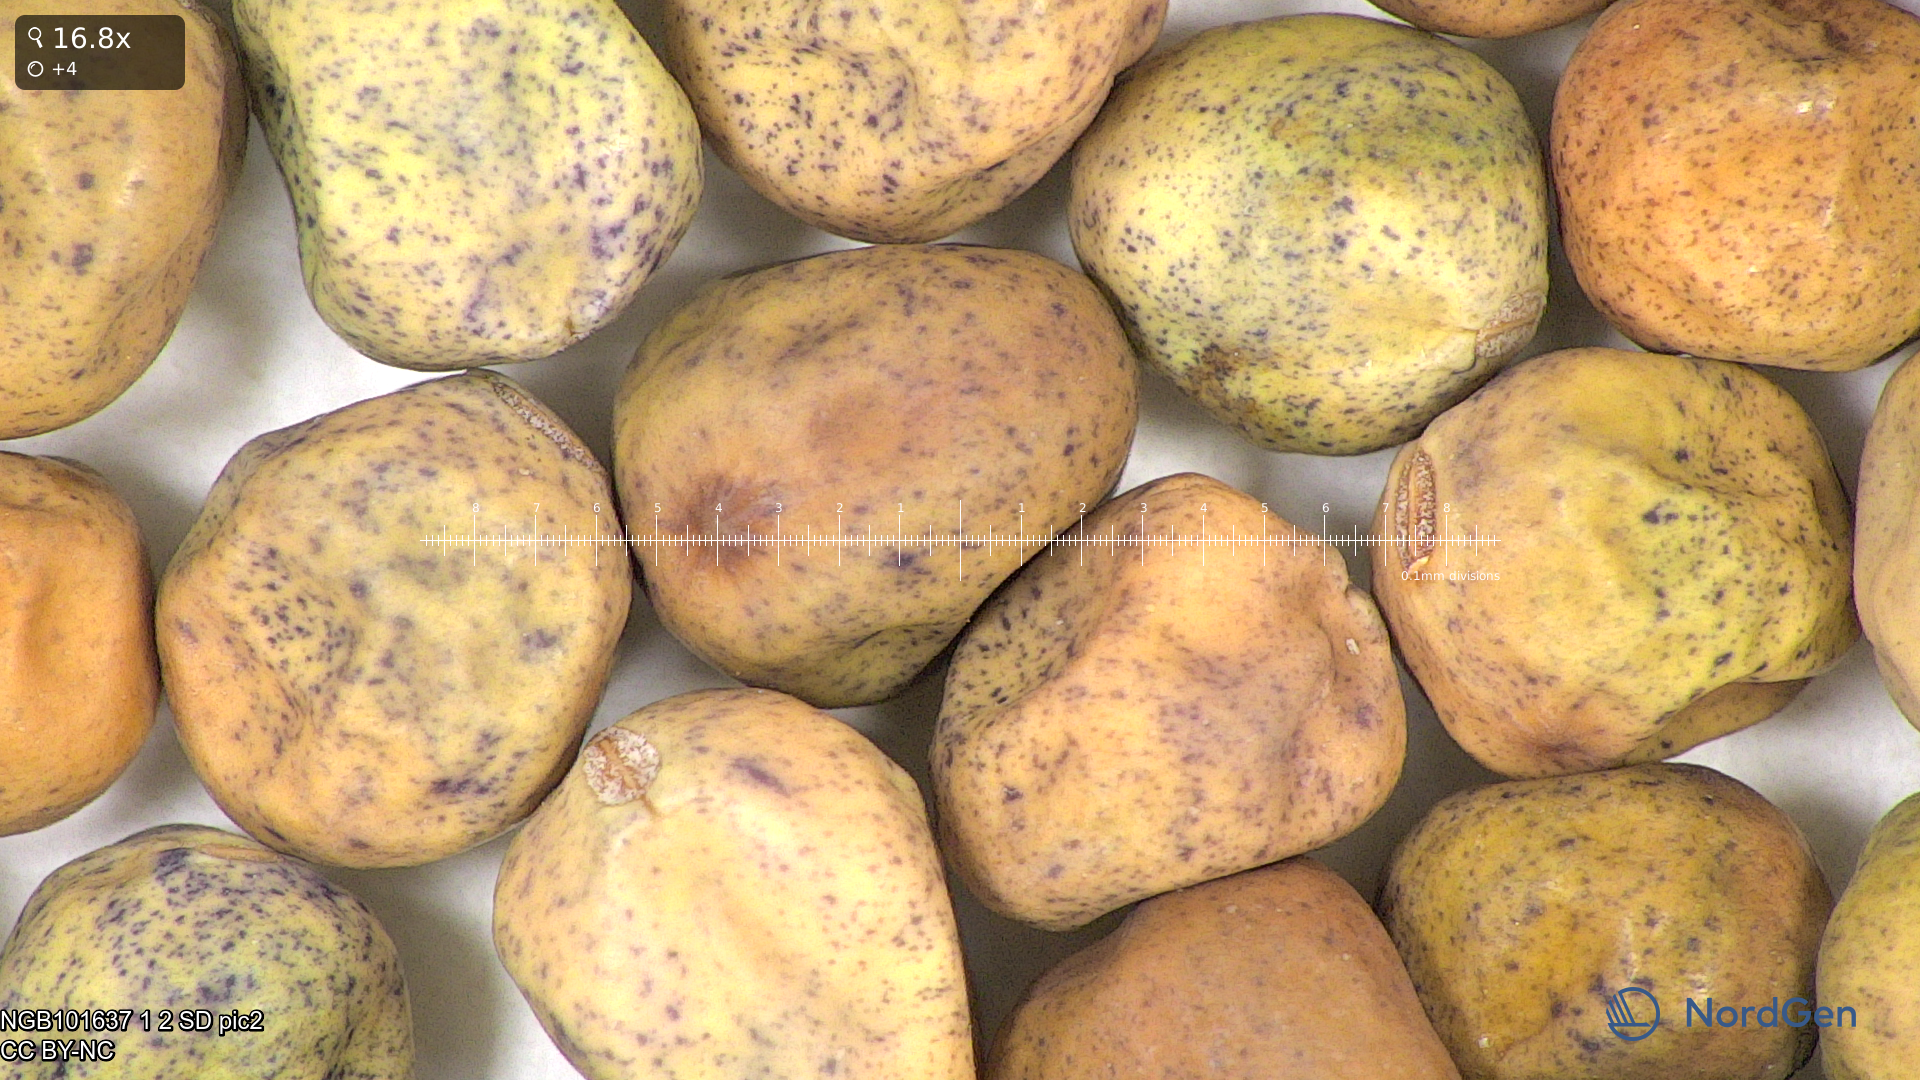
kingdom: Plantae
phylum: Tracheophyta
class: Magnoliopsida
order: Fabales
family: Fabaceae
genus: Lathyrus
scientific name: Lathyrus oleraceus
